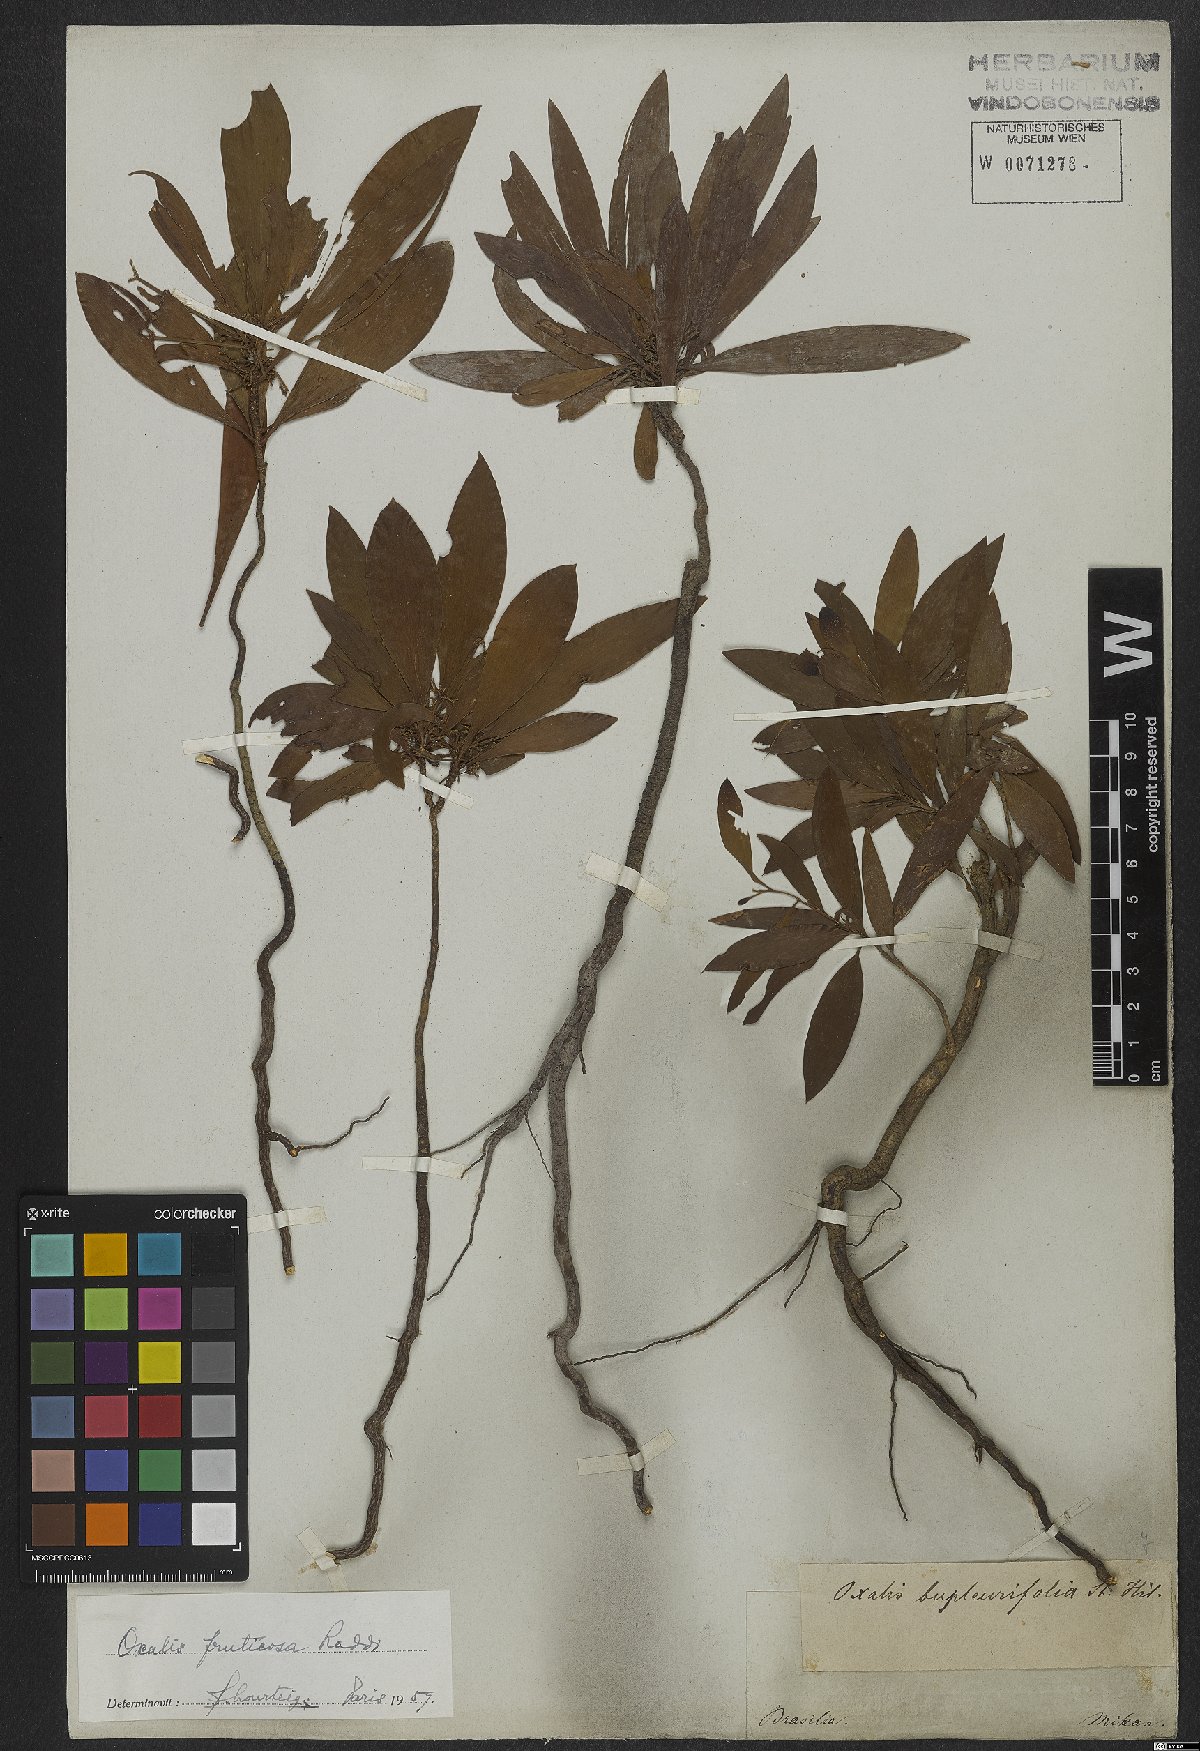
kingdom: Plantae
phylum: Tracheophyta
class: Magnoliopsida
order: Oxalidales
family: Oxalidaceae
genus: Oxalis
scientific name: Oxalis fruticosa
